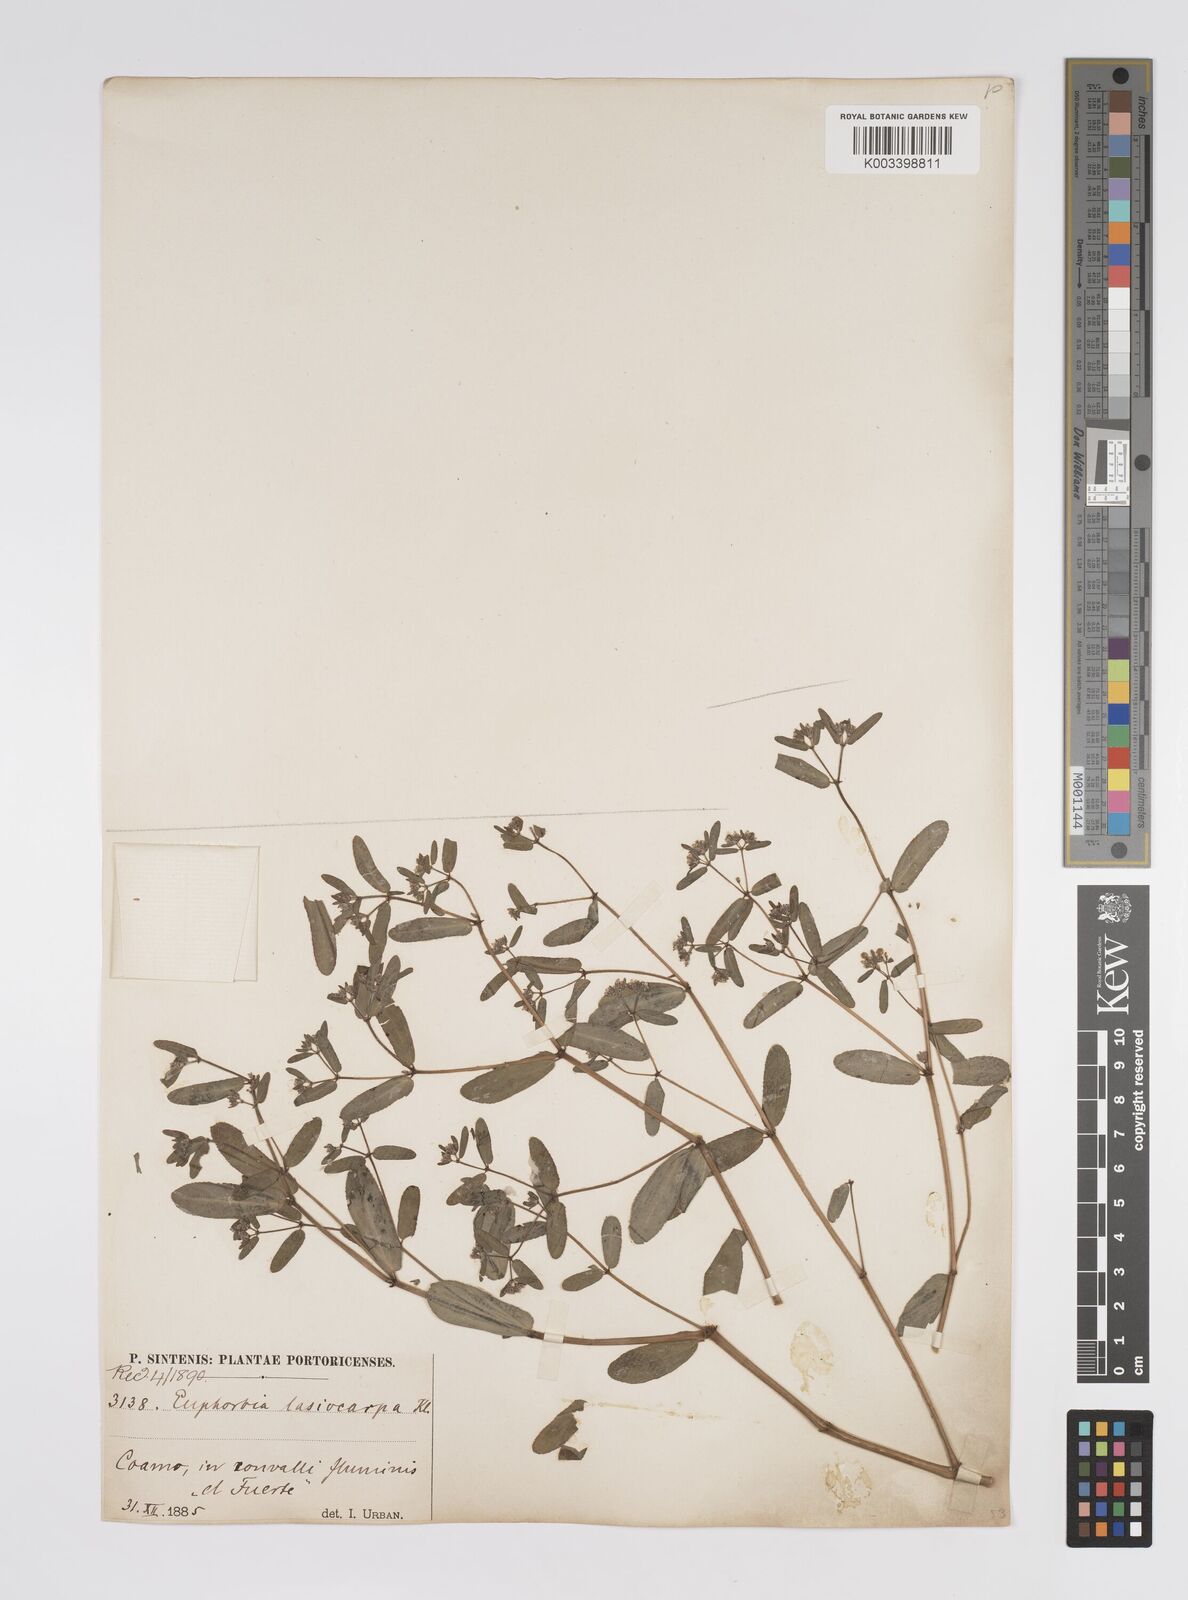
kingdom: Plantae
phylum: Tracheophyta
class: Magnoliopsida
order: Malpighiales
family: Euphorbiaceae
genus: Euphorbia
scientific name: Euphorbia lasiocarpa
